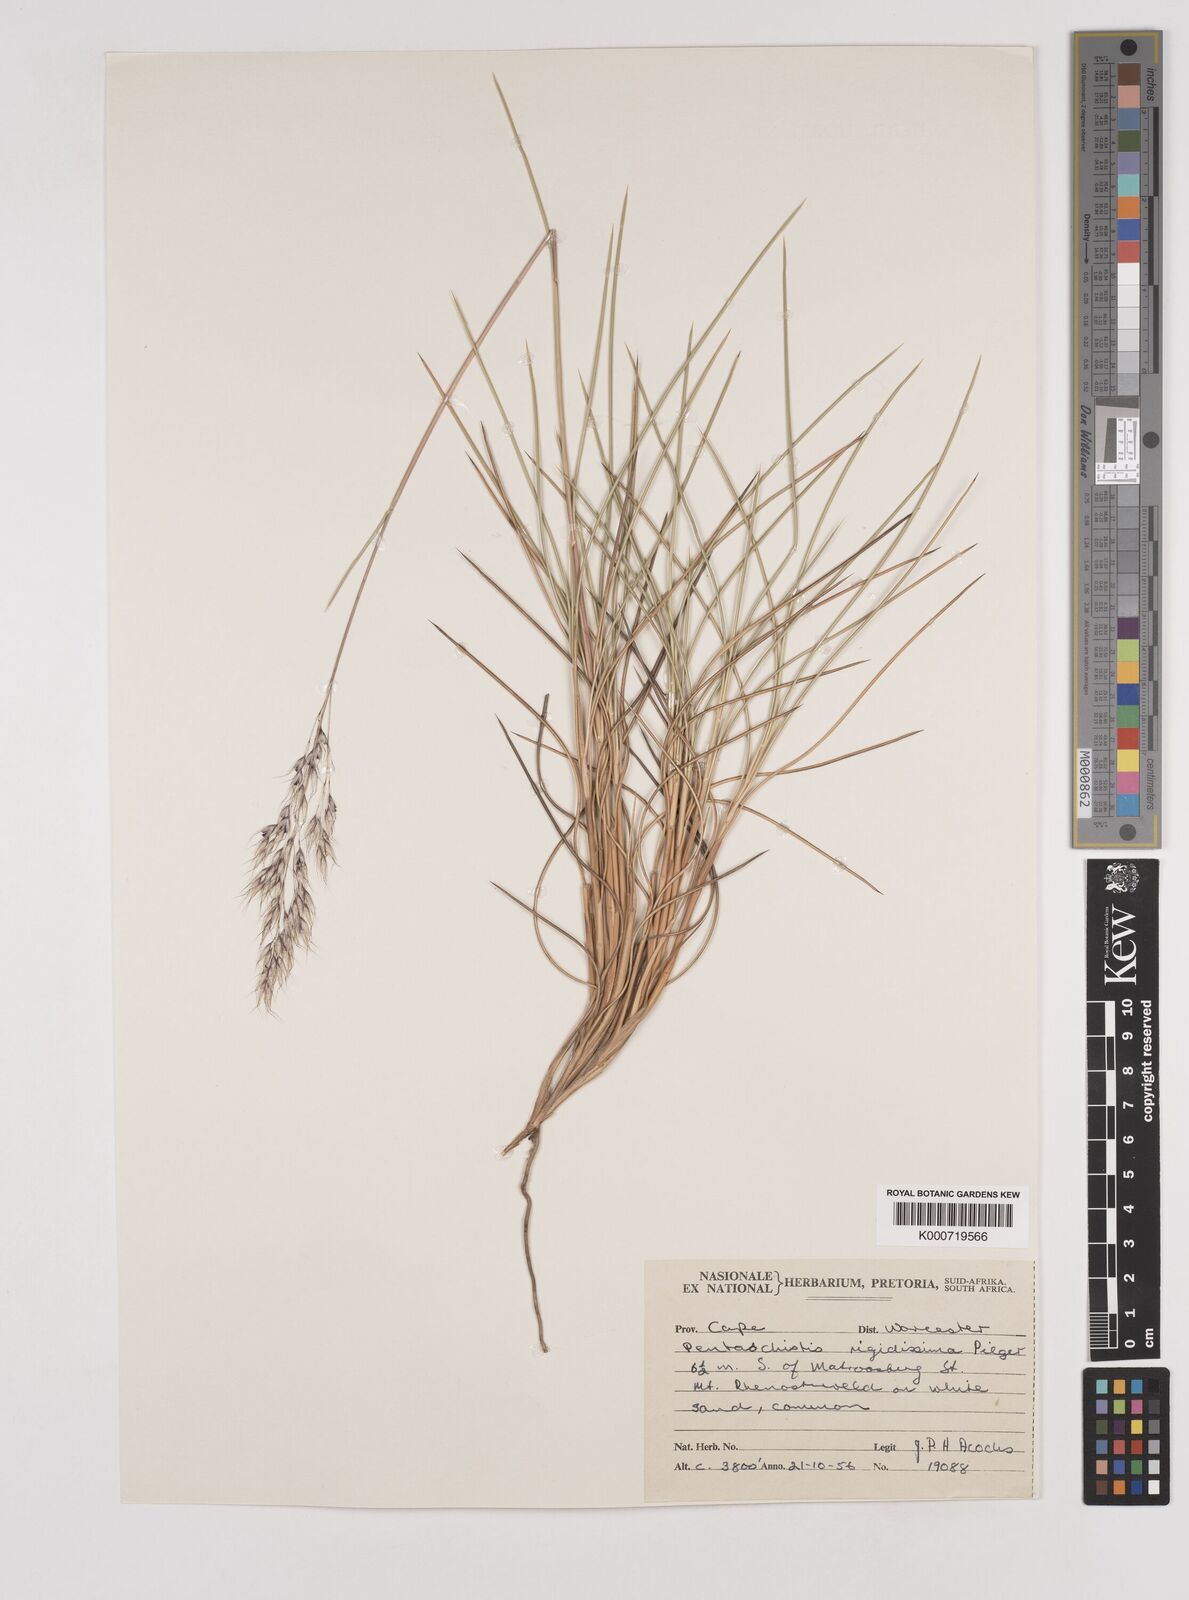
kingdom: Plantae
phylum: Tracheophyta
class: Liliopsida
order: Poales
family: Poaceae
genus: Pentameris
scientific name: Pentameris pyrophila
